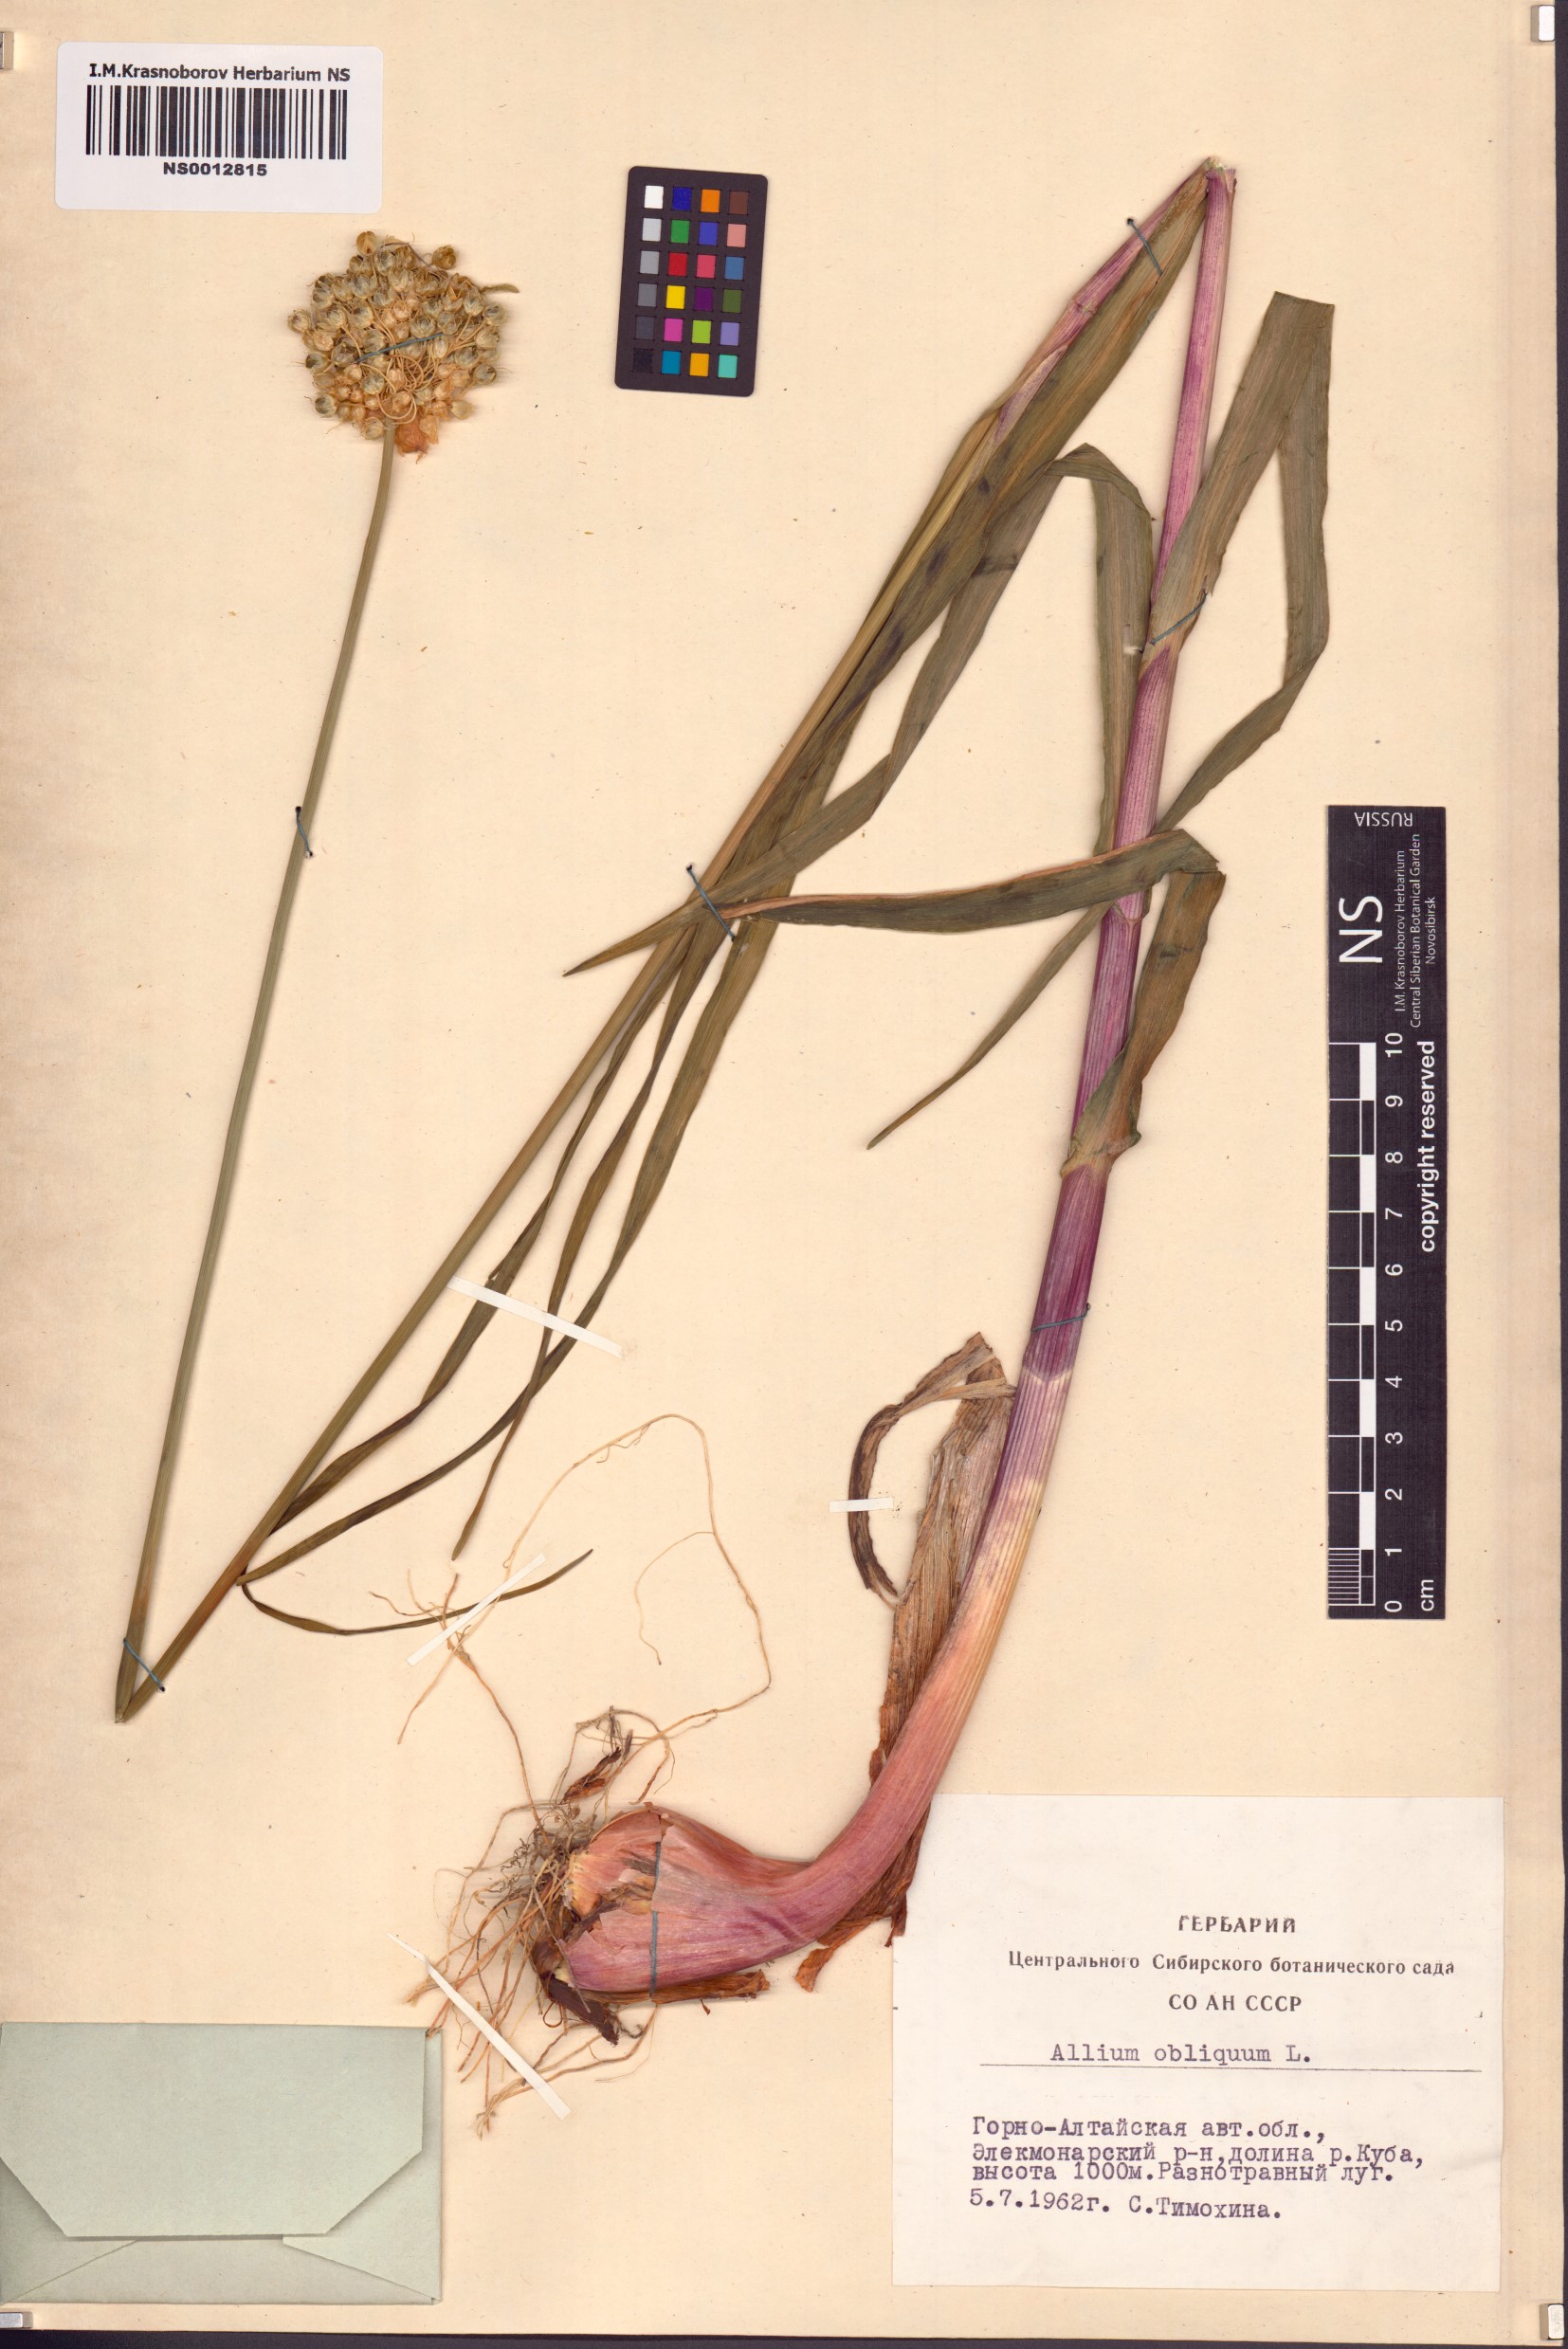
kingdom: Plantae
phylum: Tracheophyta
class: Liliopsida
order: Asparagales
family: Amaryllidaceae
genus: Allium
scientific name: Allium obliquum
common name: Oblique onion
